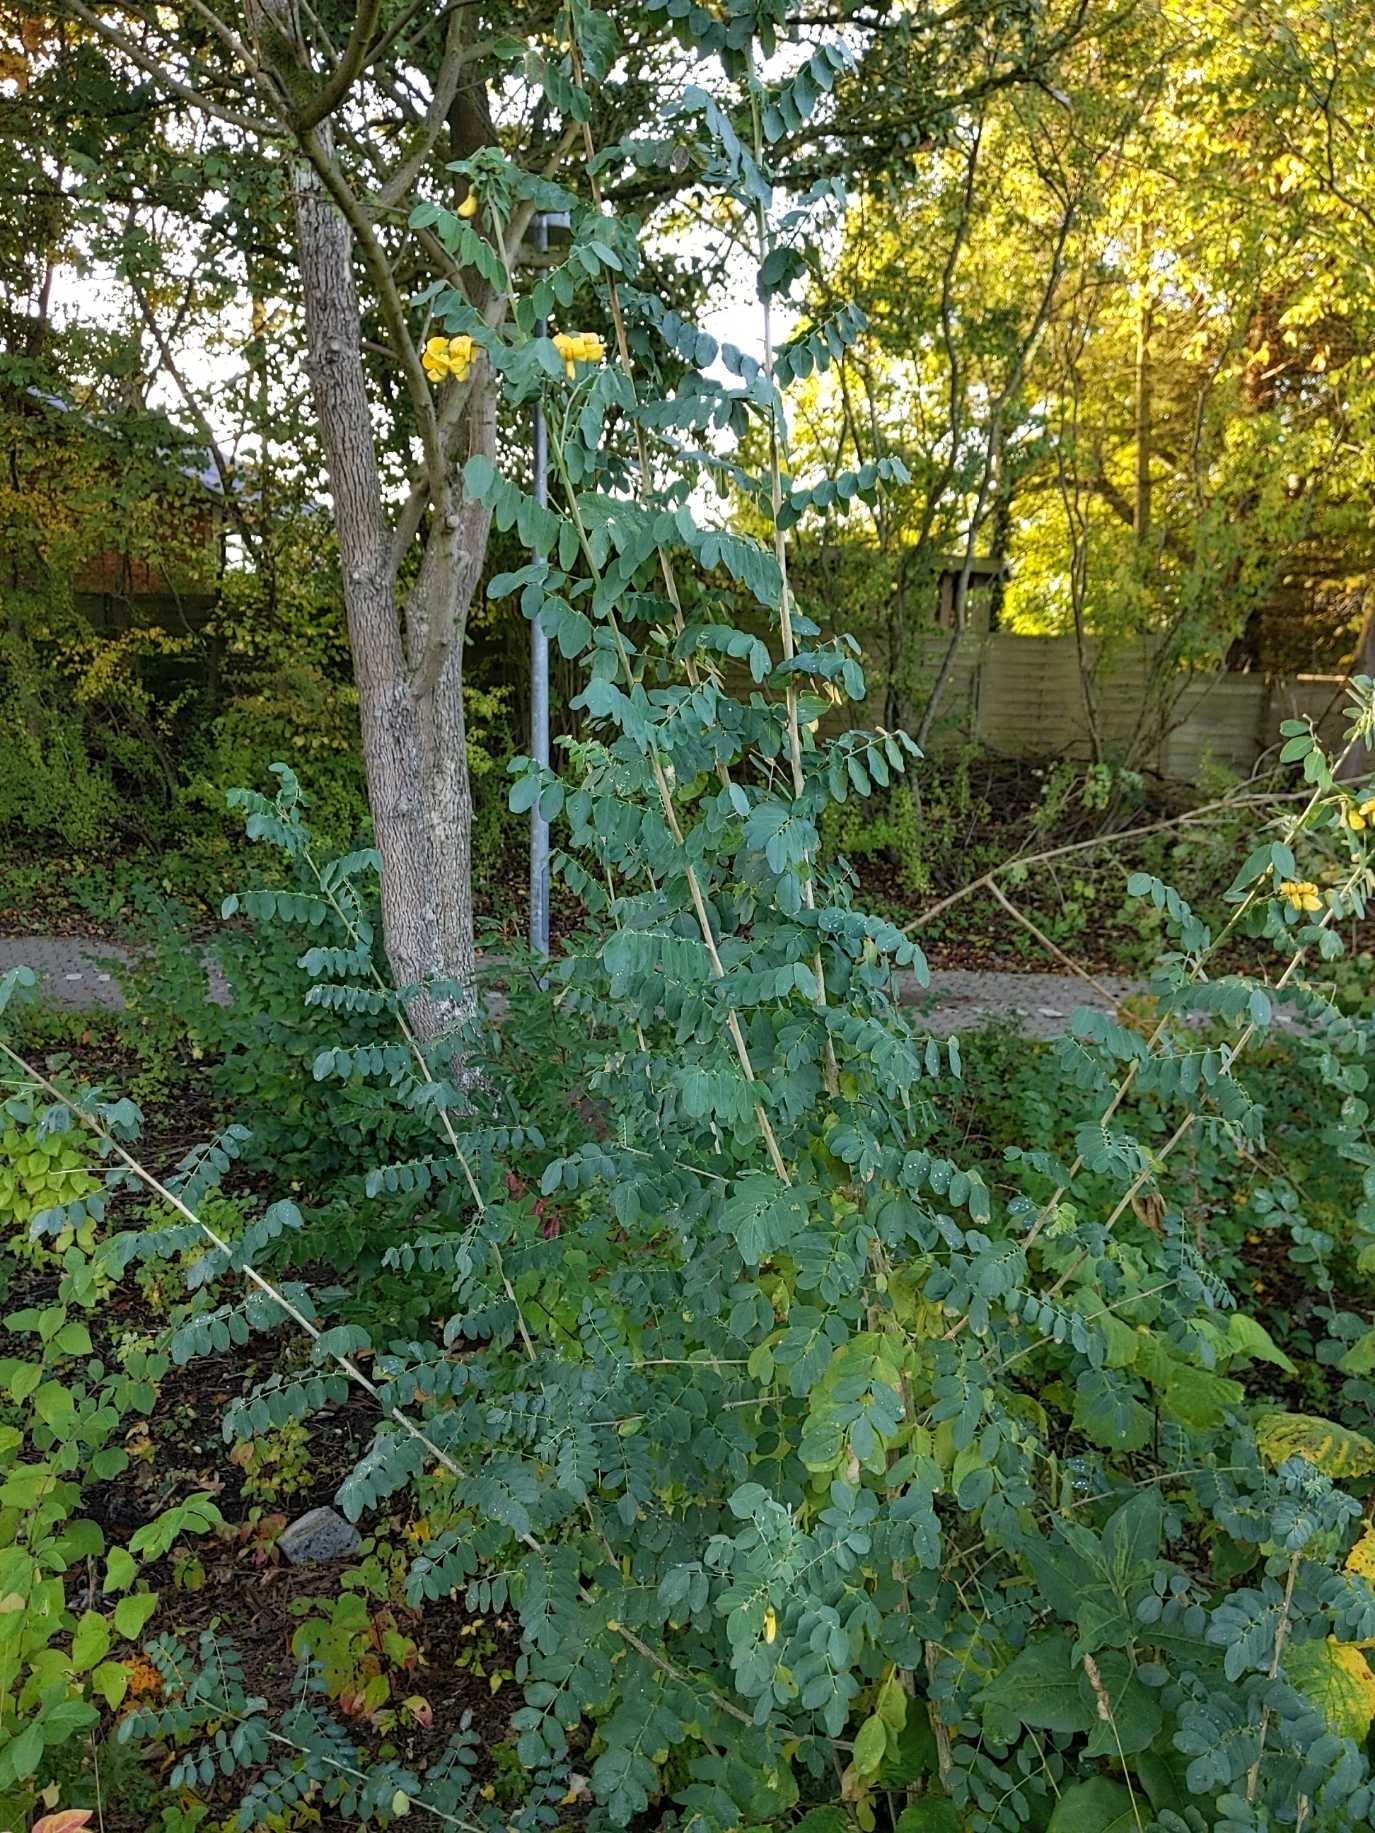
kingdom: Plantae
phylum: Tracheophyta
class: Magnoliopsida
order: Fabales
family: Fabaceae
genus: Caragana
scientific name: Caragana arborescens
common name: Ærtebusk
